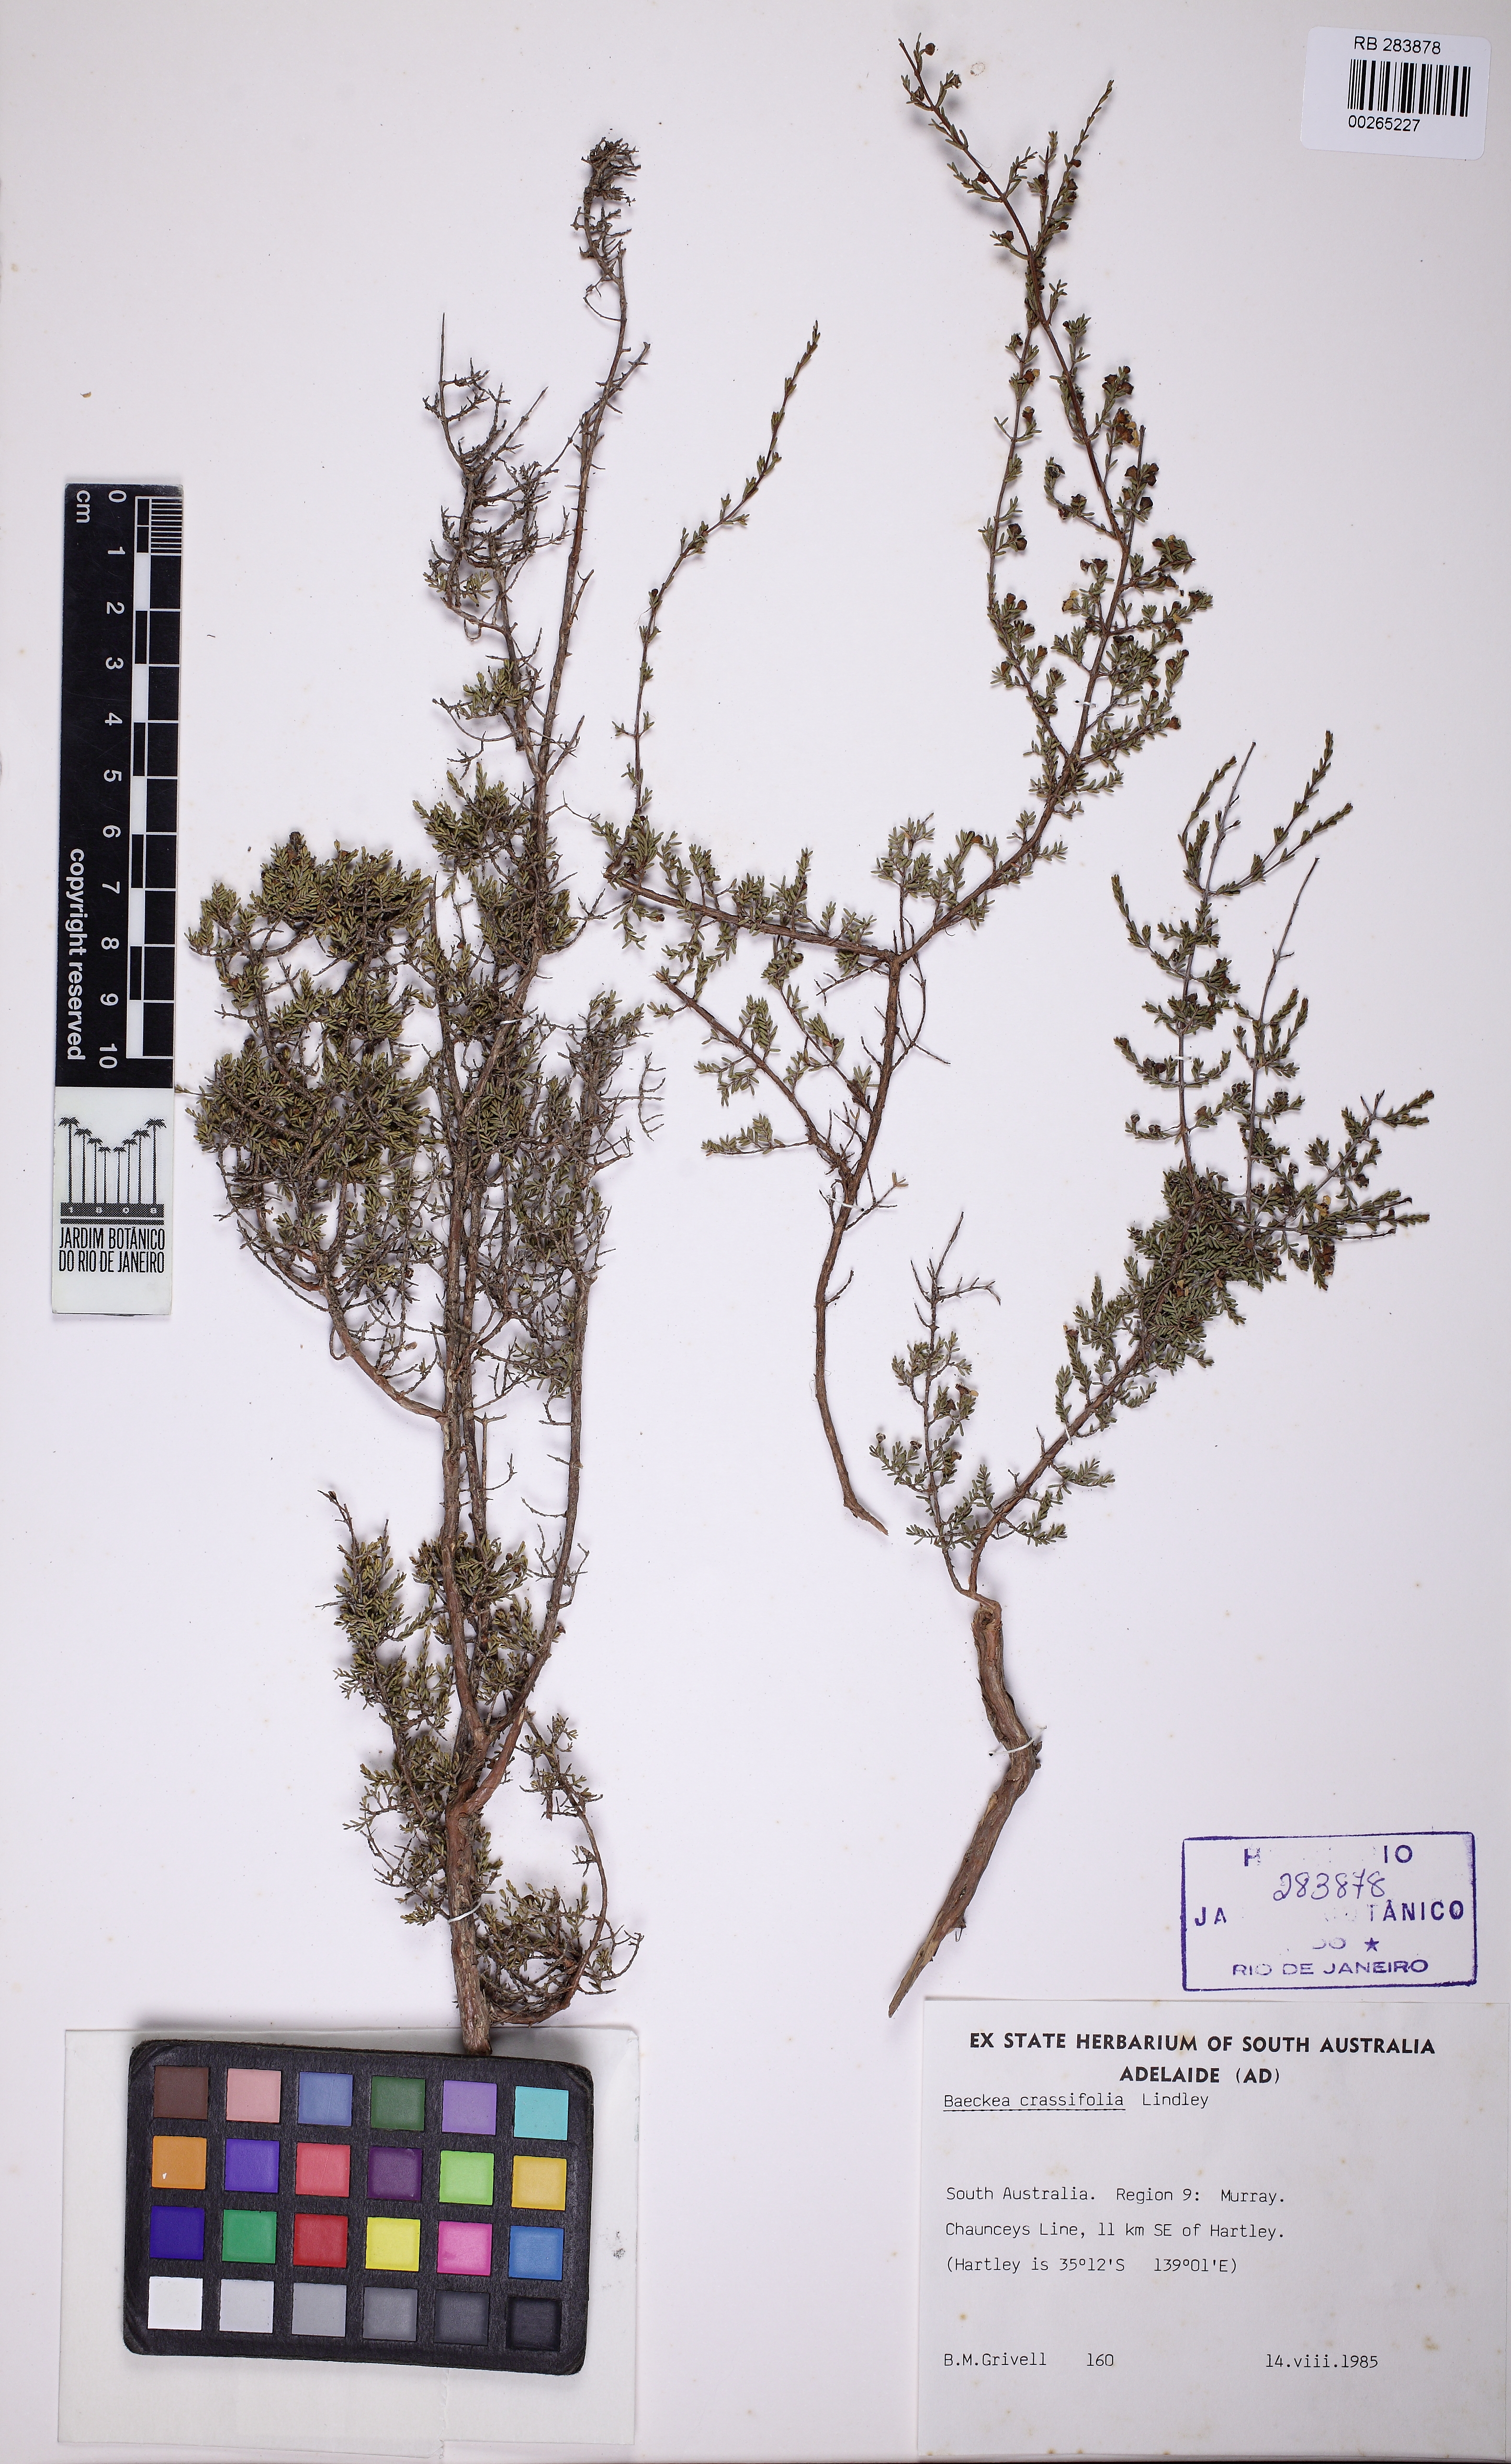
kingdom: Plantae
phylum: Tracheophyta
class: Magnoliopsida
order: Myrtales
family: Myrtaceae
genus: Rinzia
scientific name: Rinzia orientalis
